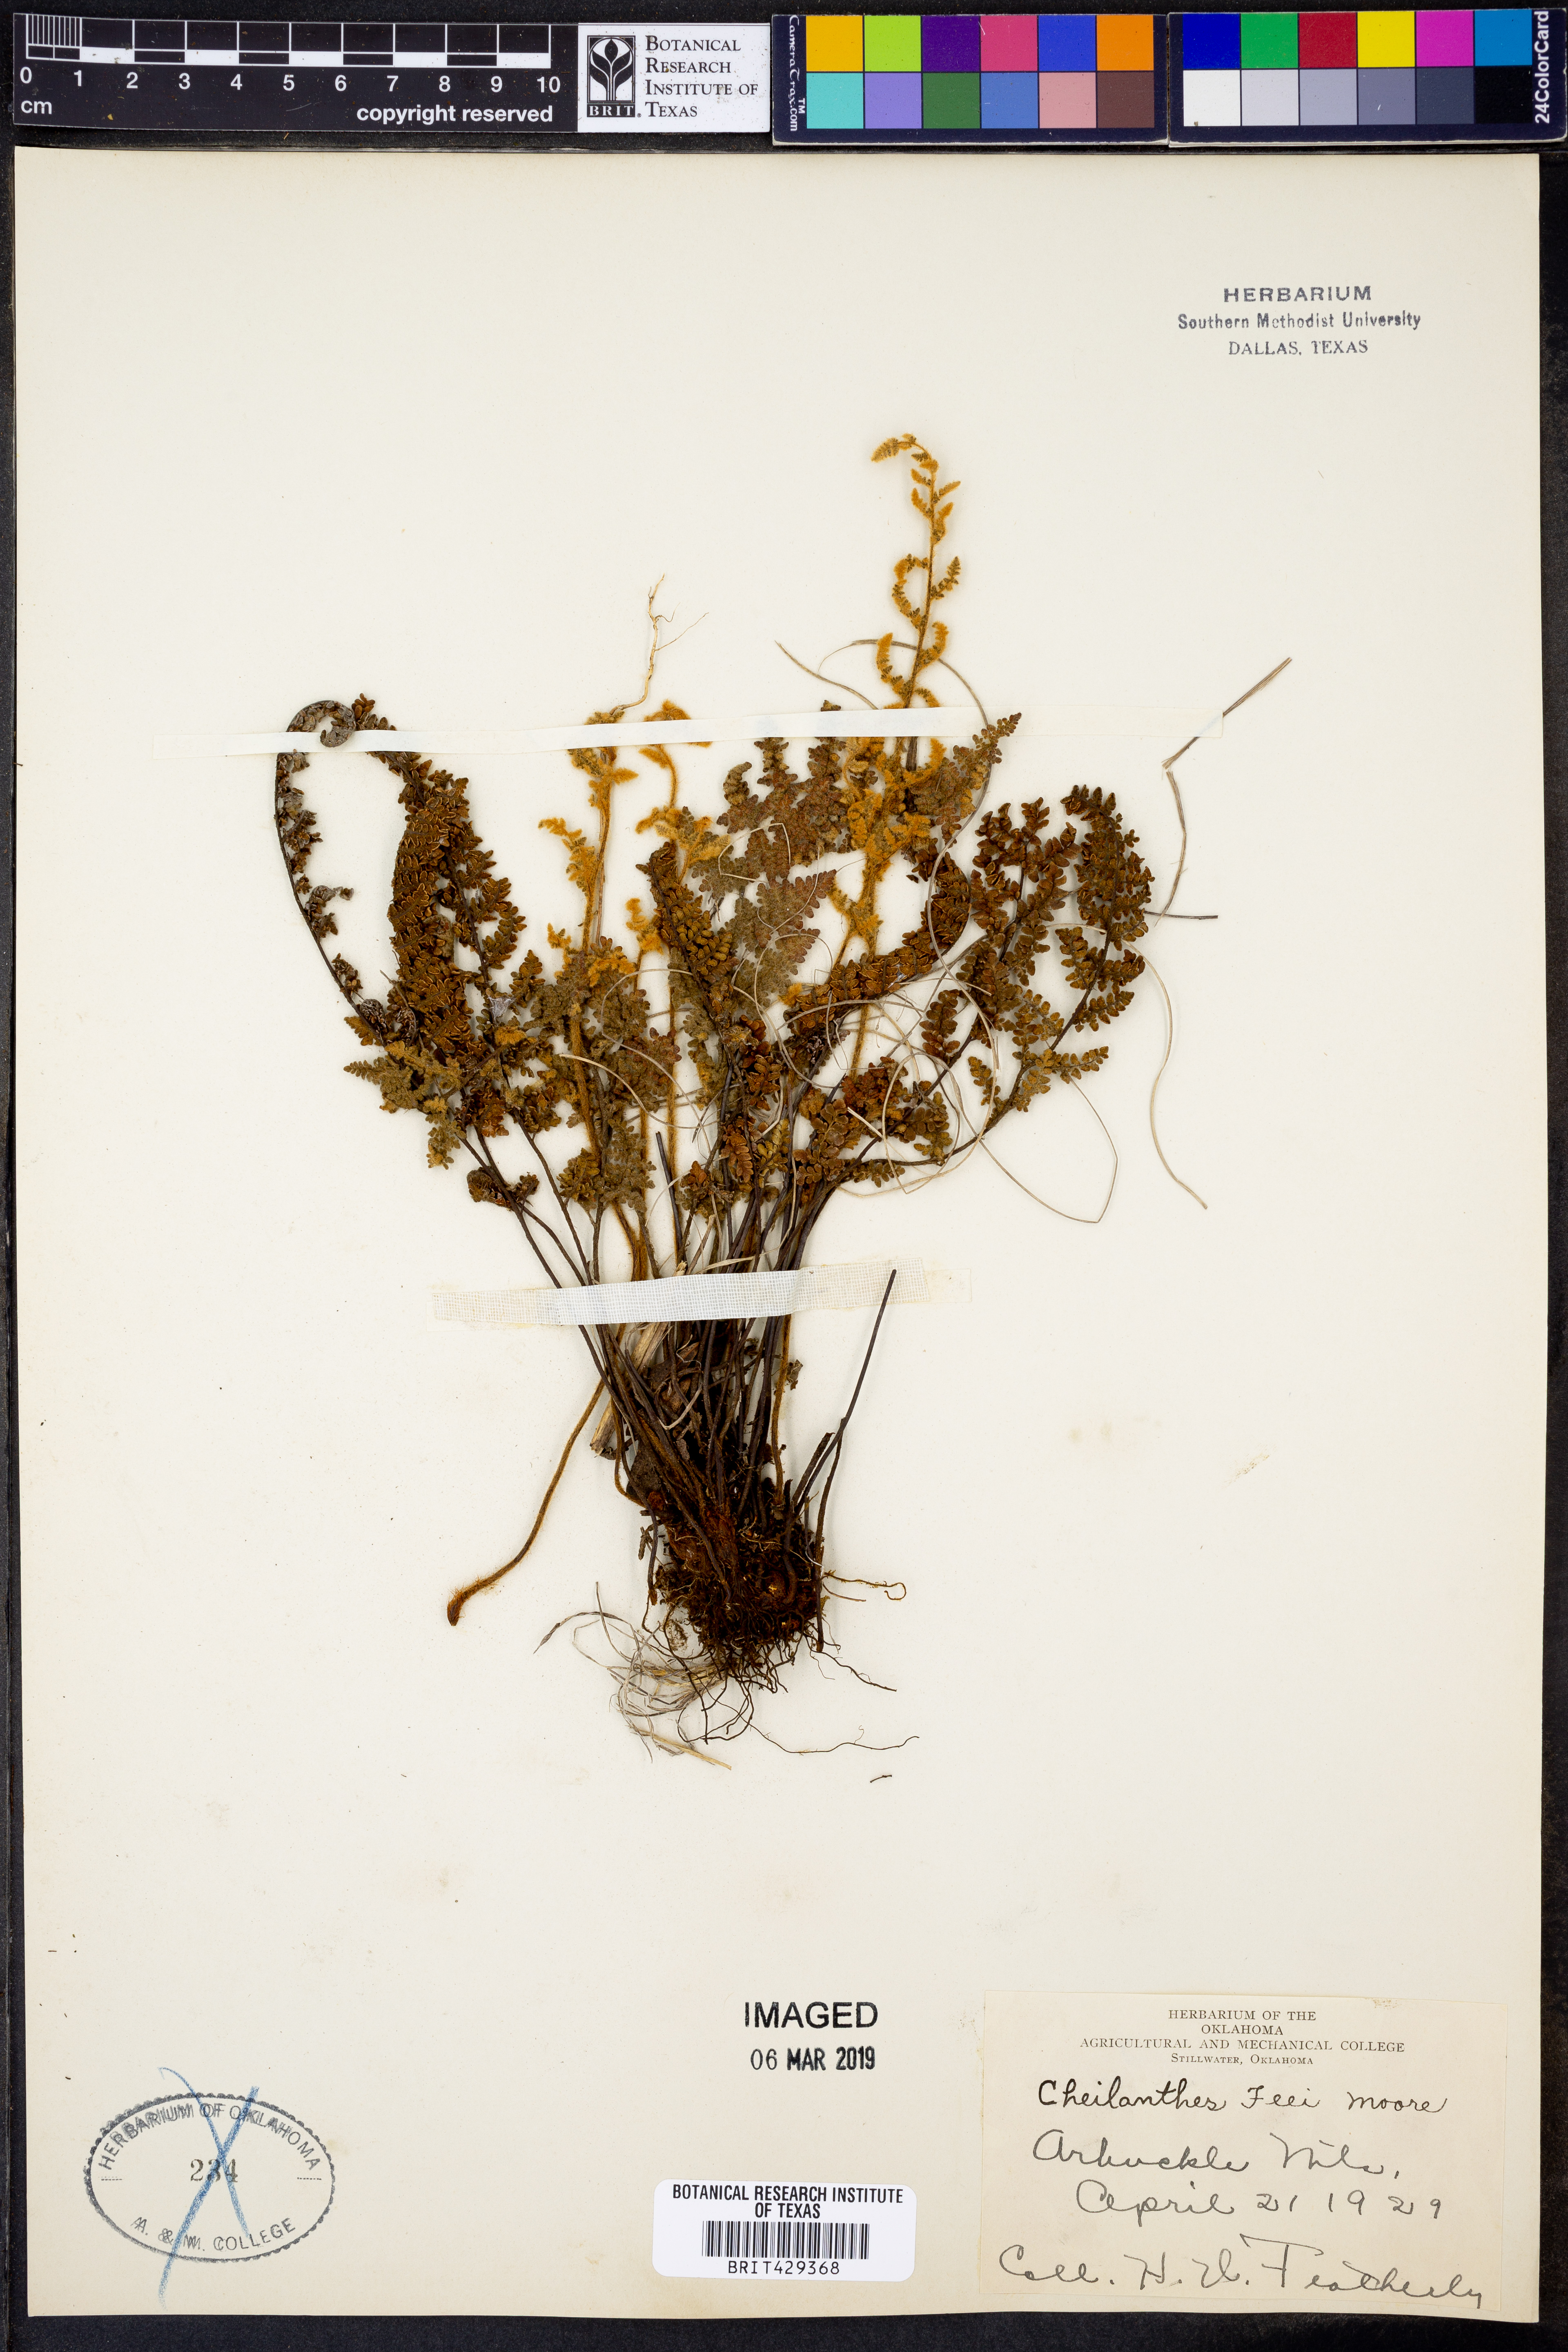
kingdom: Plantae
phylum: Tracheophyta
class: Polypodiopsida
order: Polypodiales
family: Pteridaceae
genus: Myriopteris
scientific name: Myriopteris gracilis
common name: Fee's lip fern
